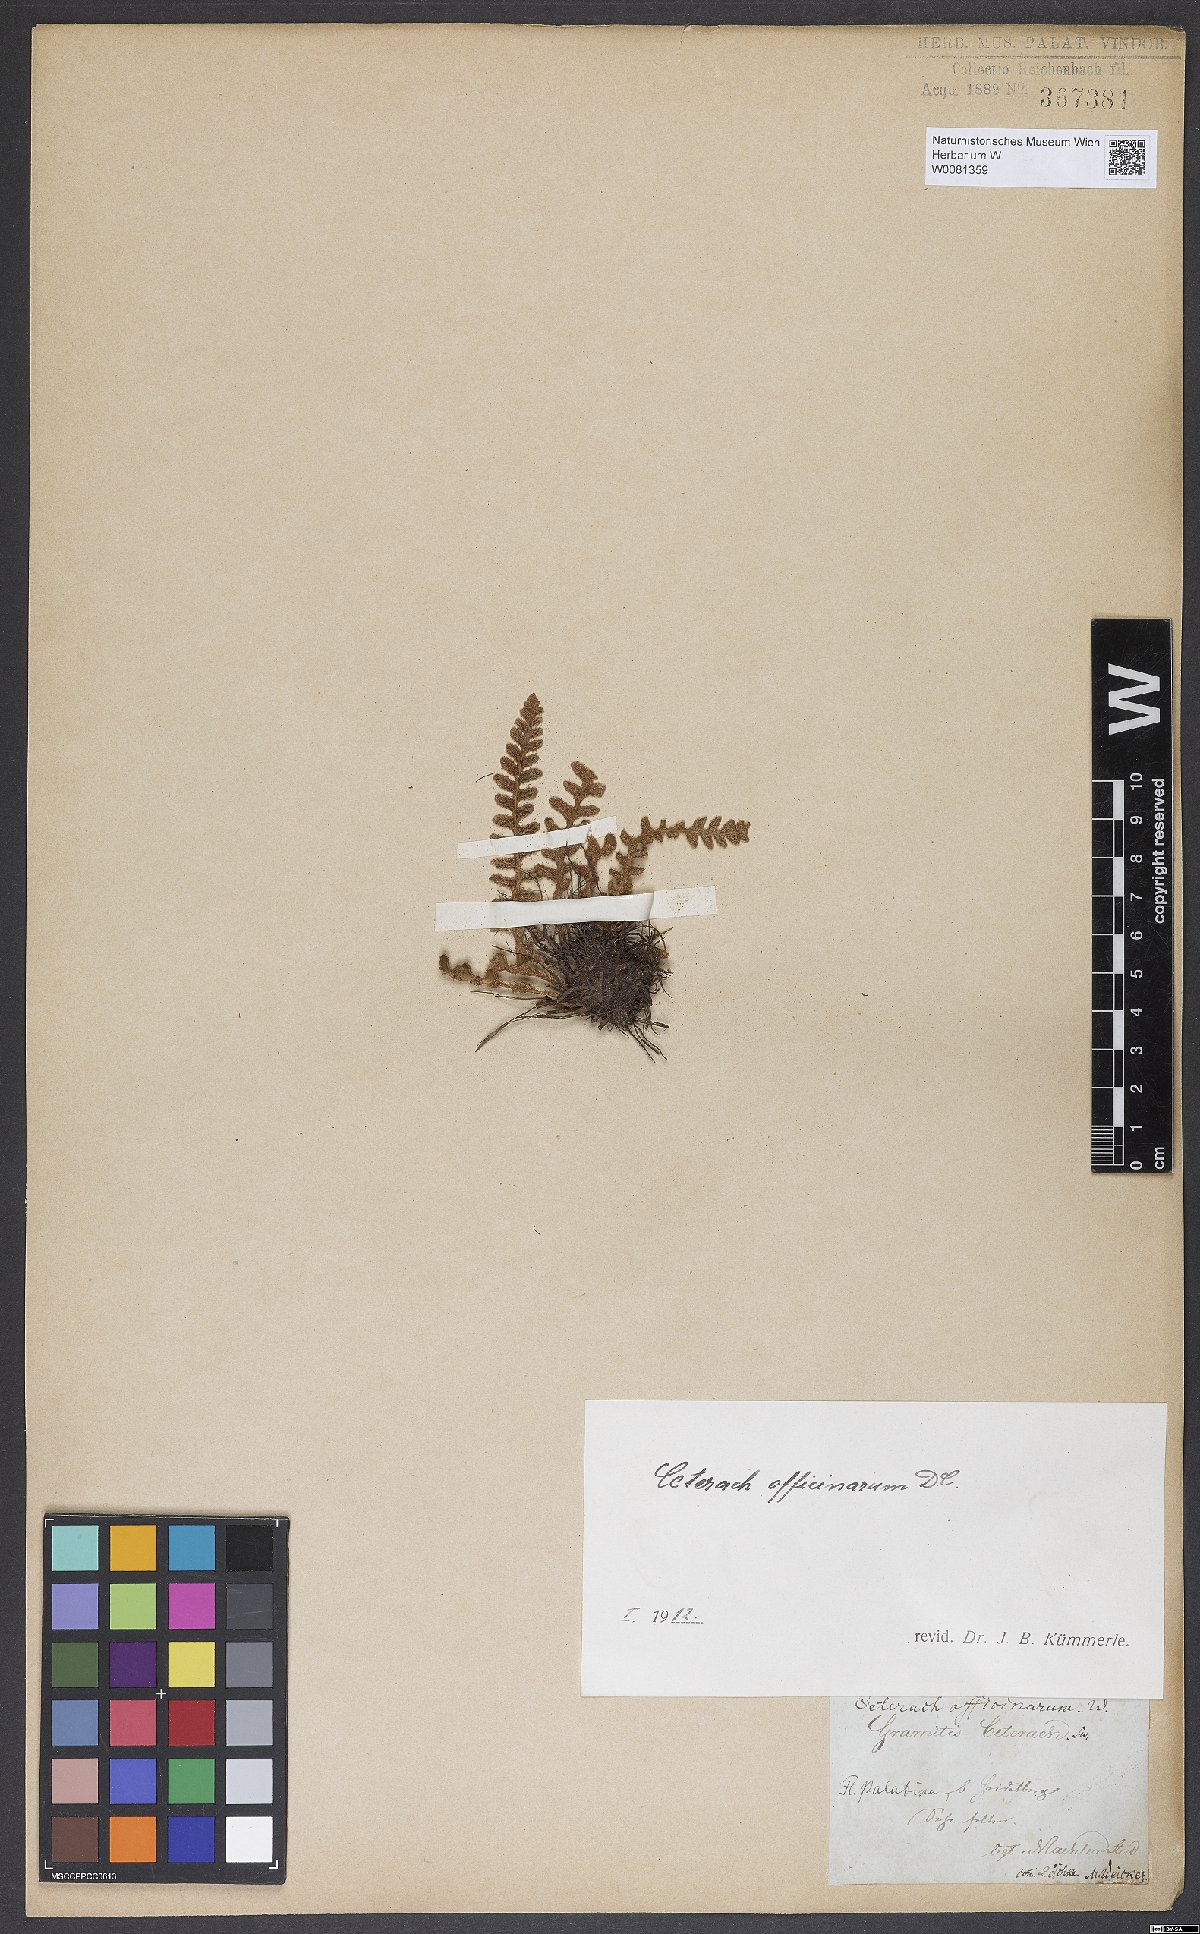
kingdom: Plantae
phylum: Tracheophyta
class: Polypodiopsida
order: Polypodiales
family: Aspleniaceae
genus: Asplenium
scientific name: Asplenium ceterach
